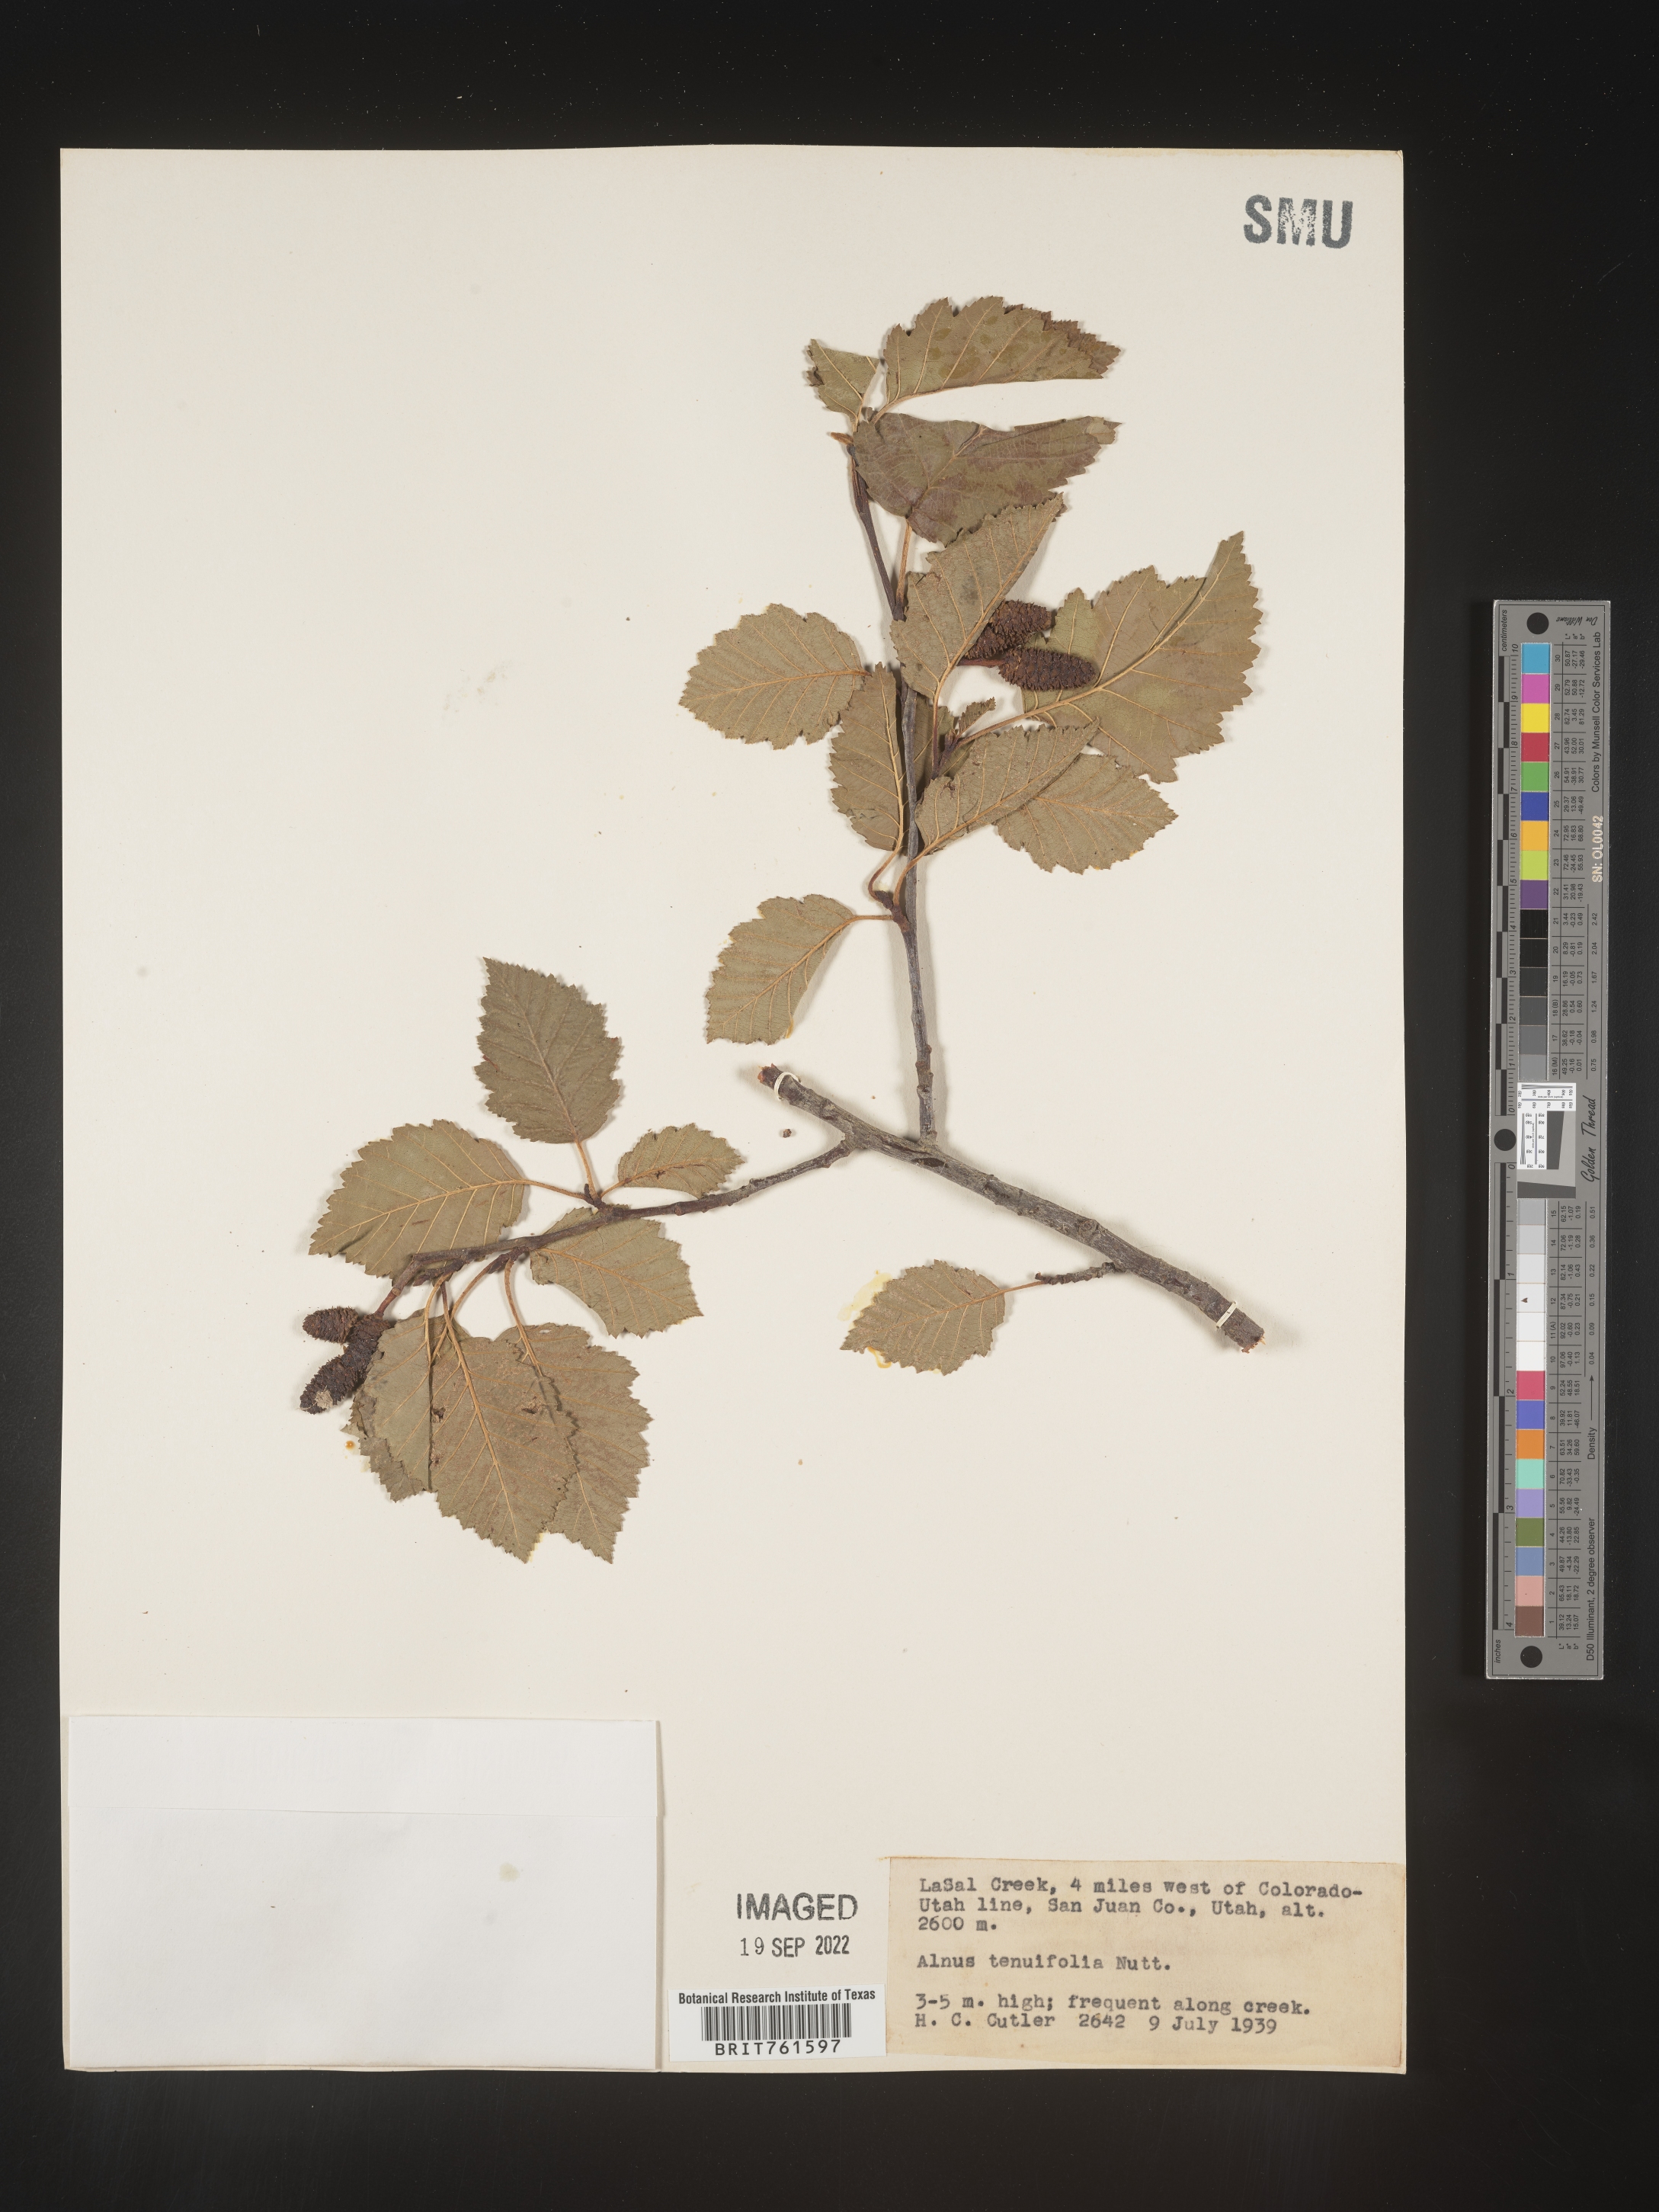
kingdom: Plantae
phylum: Tracheophyta
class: Magnoliopsida
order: Fagales
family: Betulaceae
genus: Alnus
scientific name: Alnus incana
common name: Grey alder
